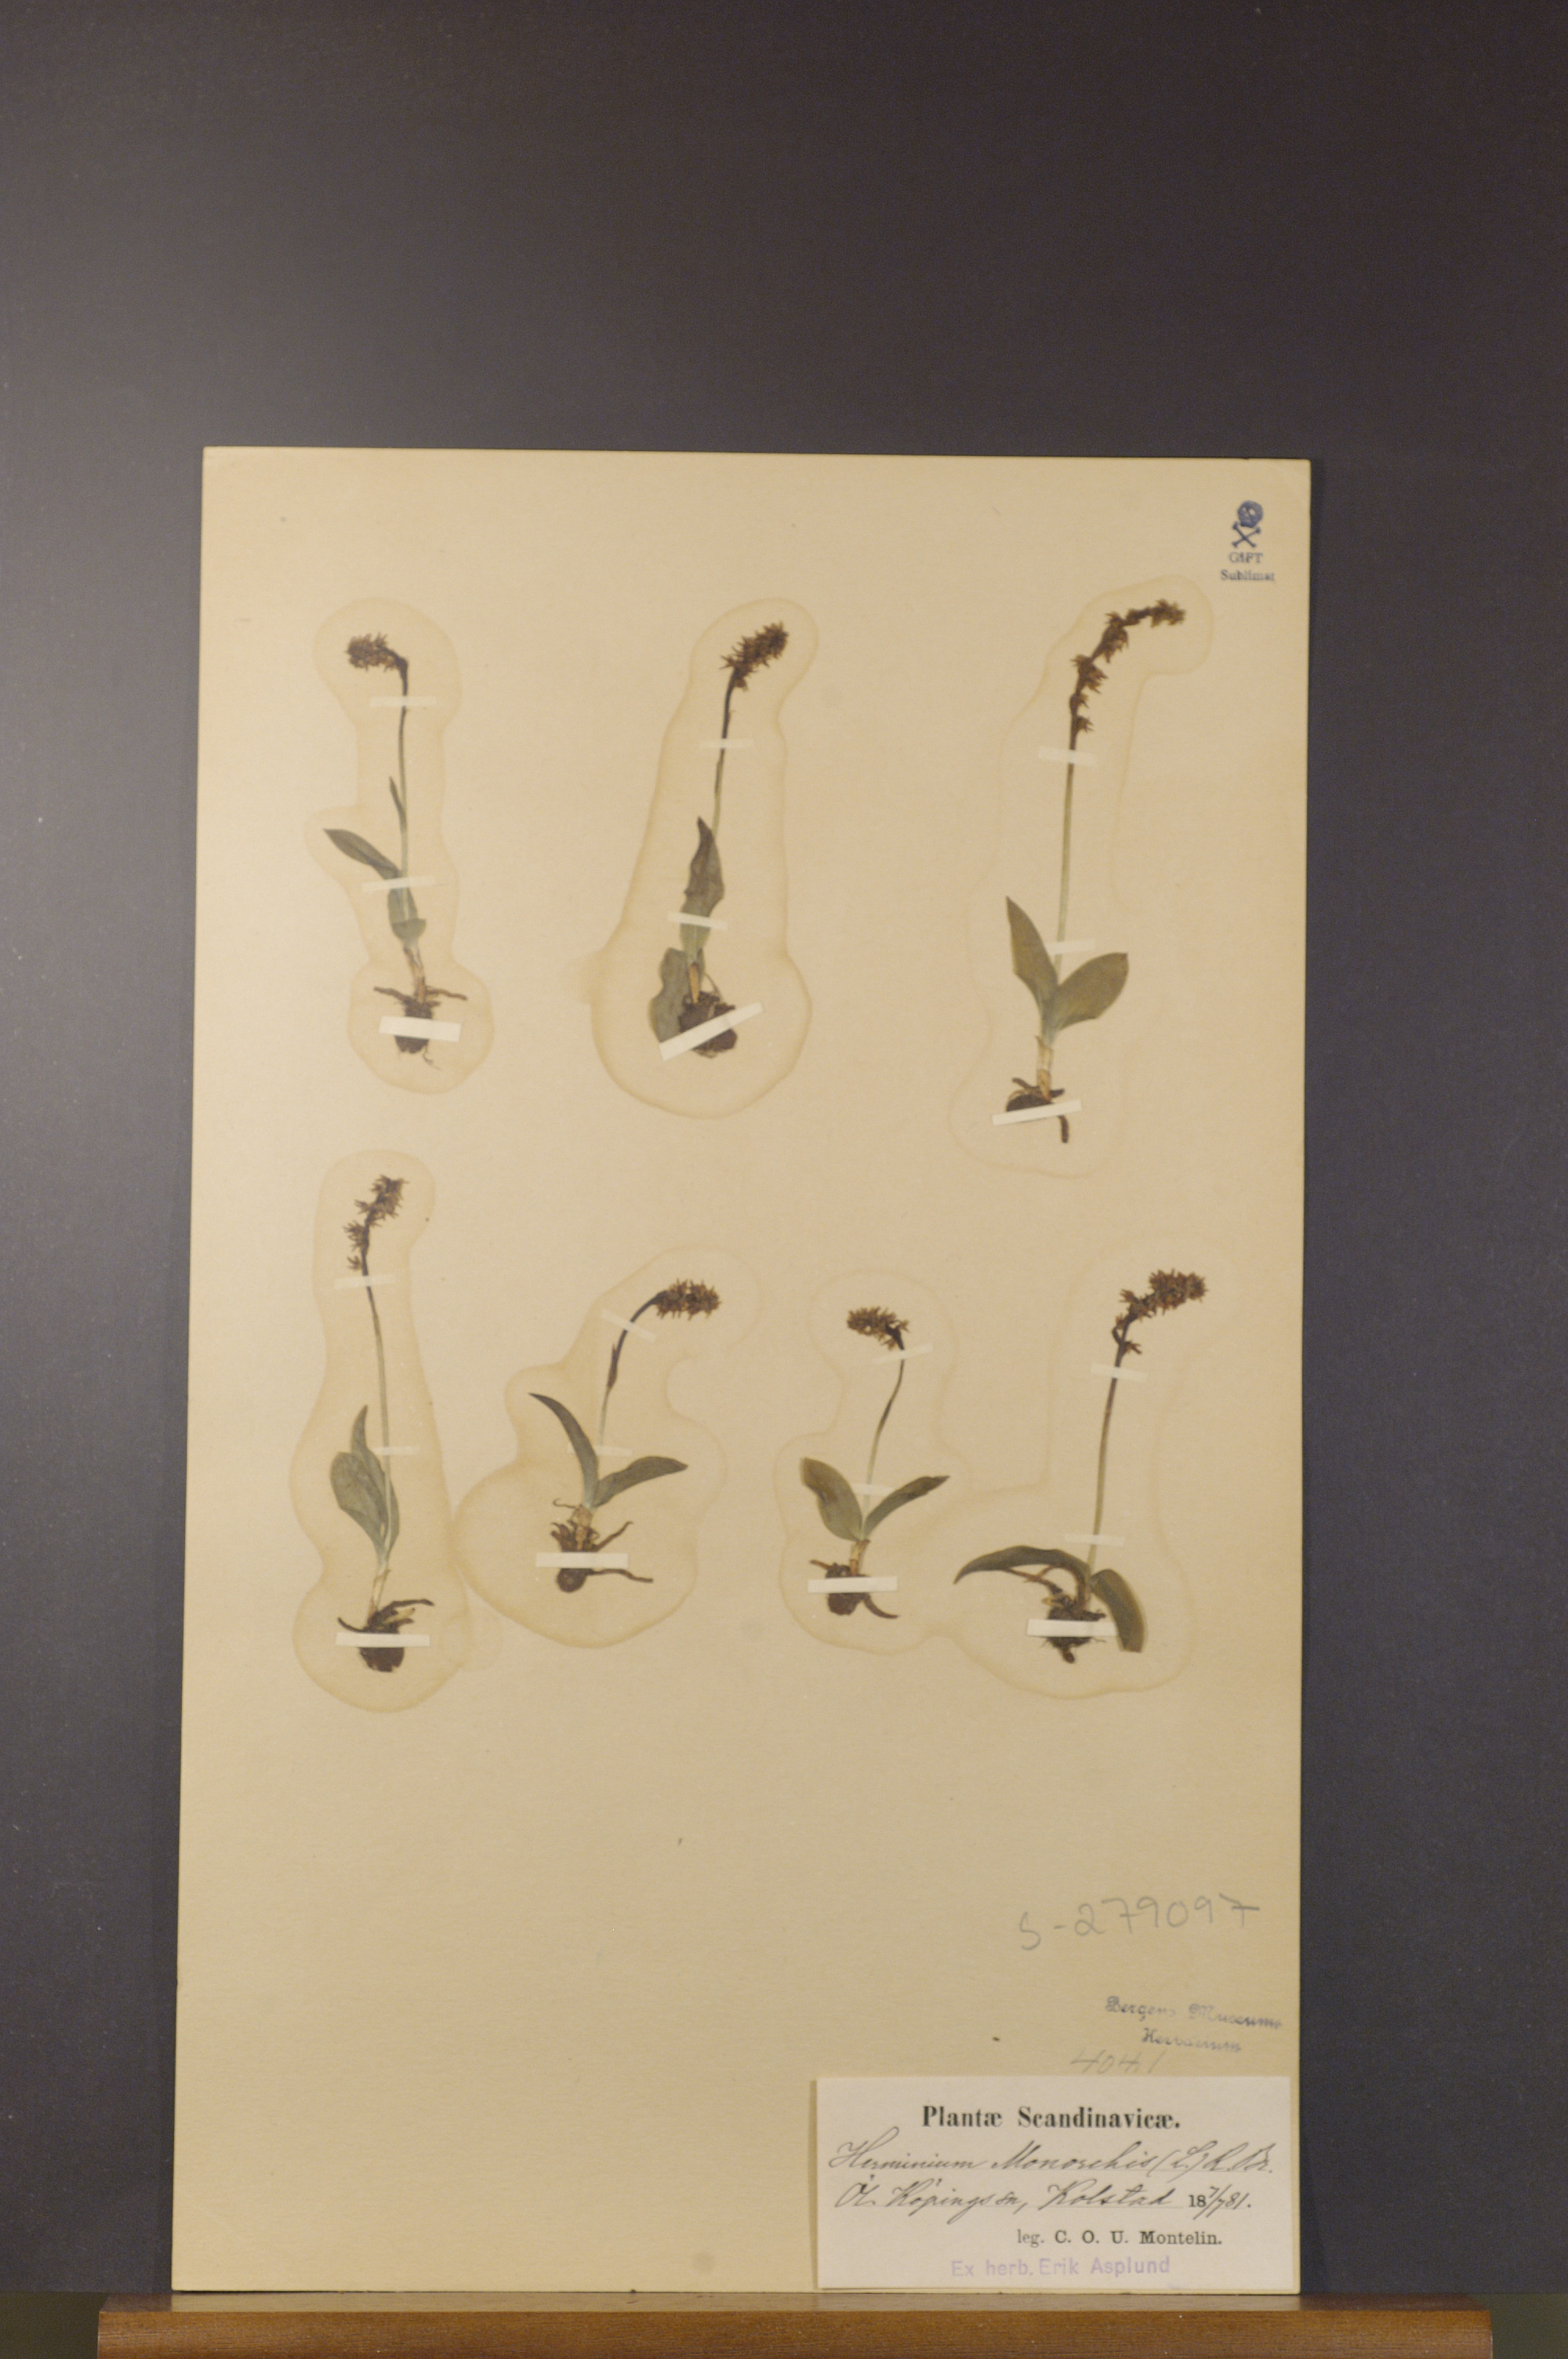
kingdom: Plantae
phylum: Tracheophyta
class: Liliopsida
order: Asparagales
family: Orchidaceae
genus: Herminium
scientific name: Herminium monorchis
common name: Musk orchid
